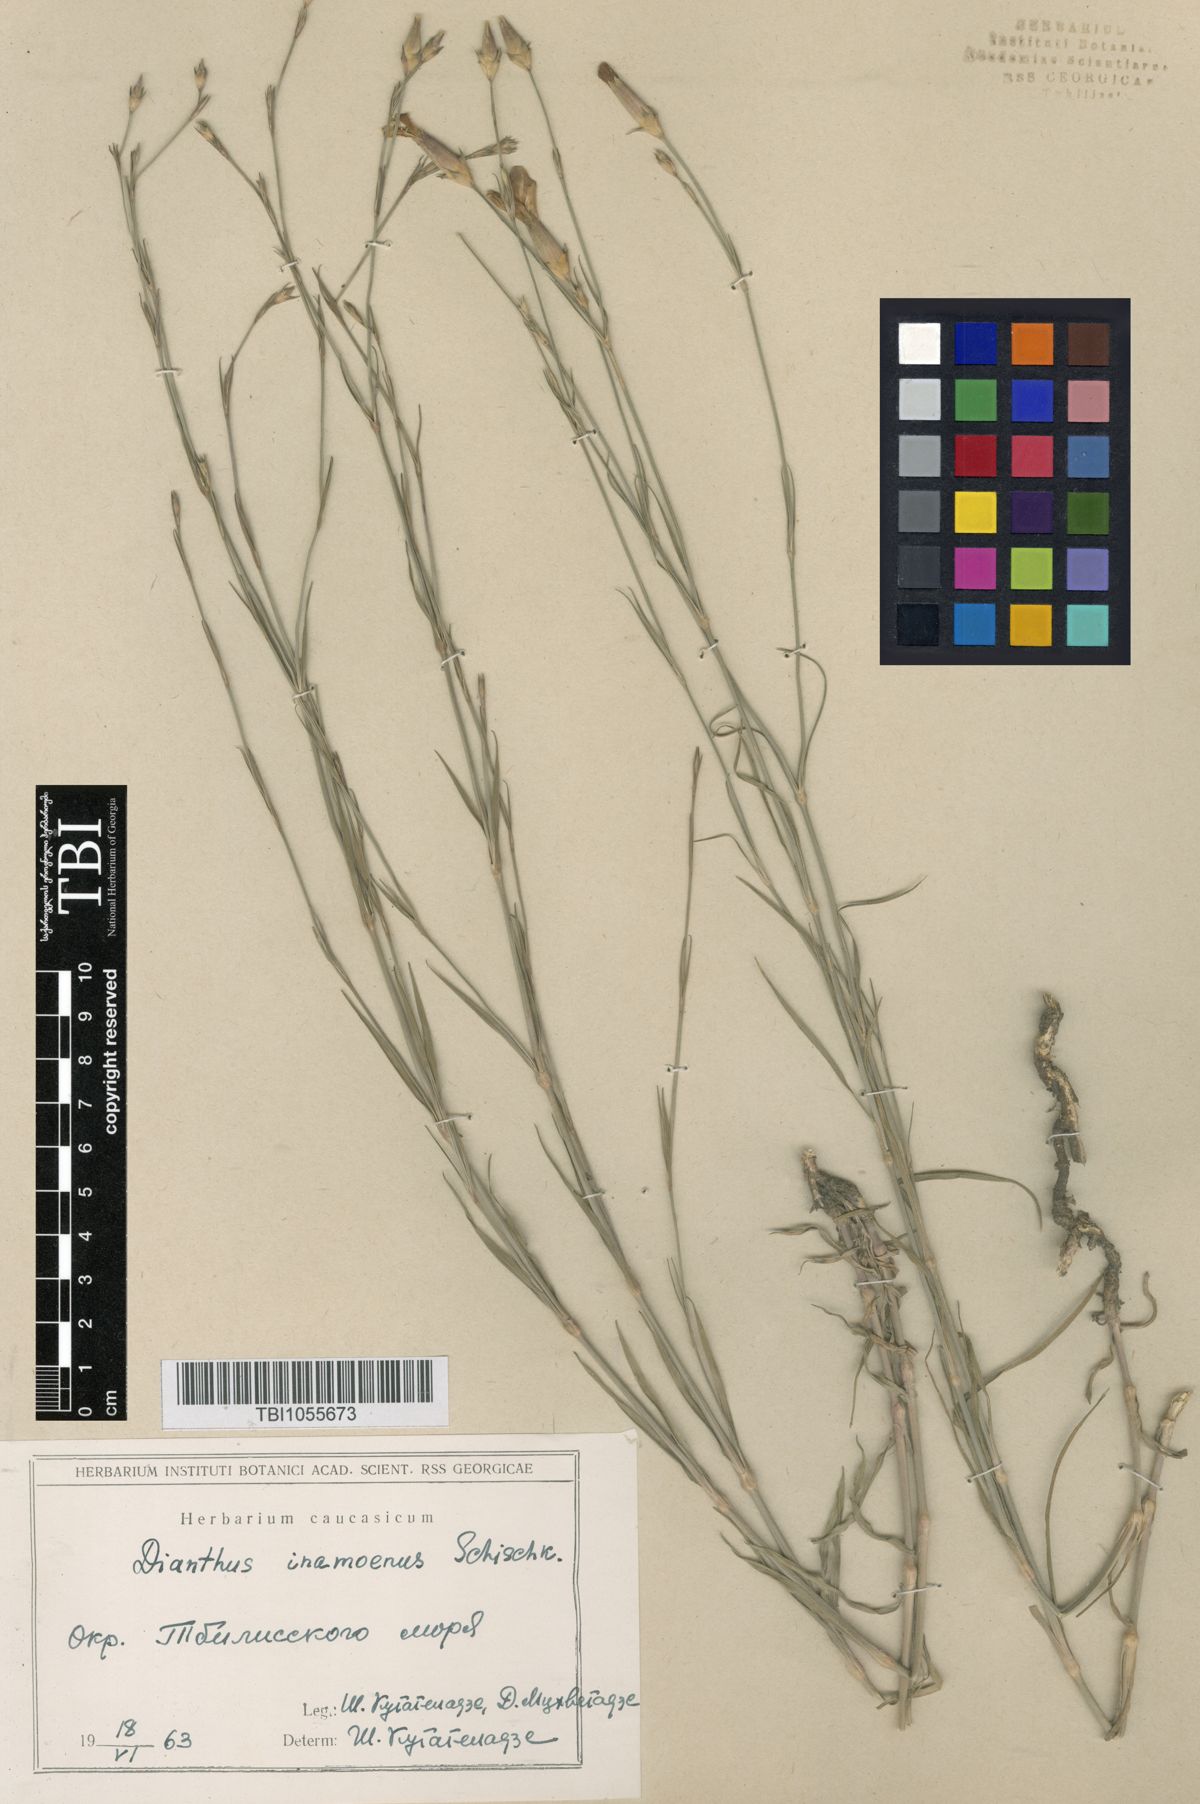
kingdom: Plantae
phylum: Tracheophyta
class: Magnoliopsida
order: Caryophyllales
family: Caryophyllaceae
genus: Dianthus
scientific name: Dianthus inamoenus
